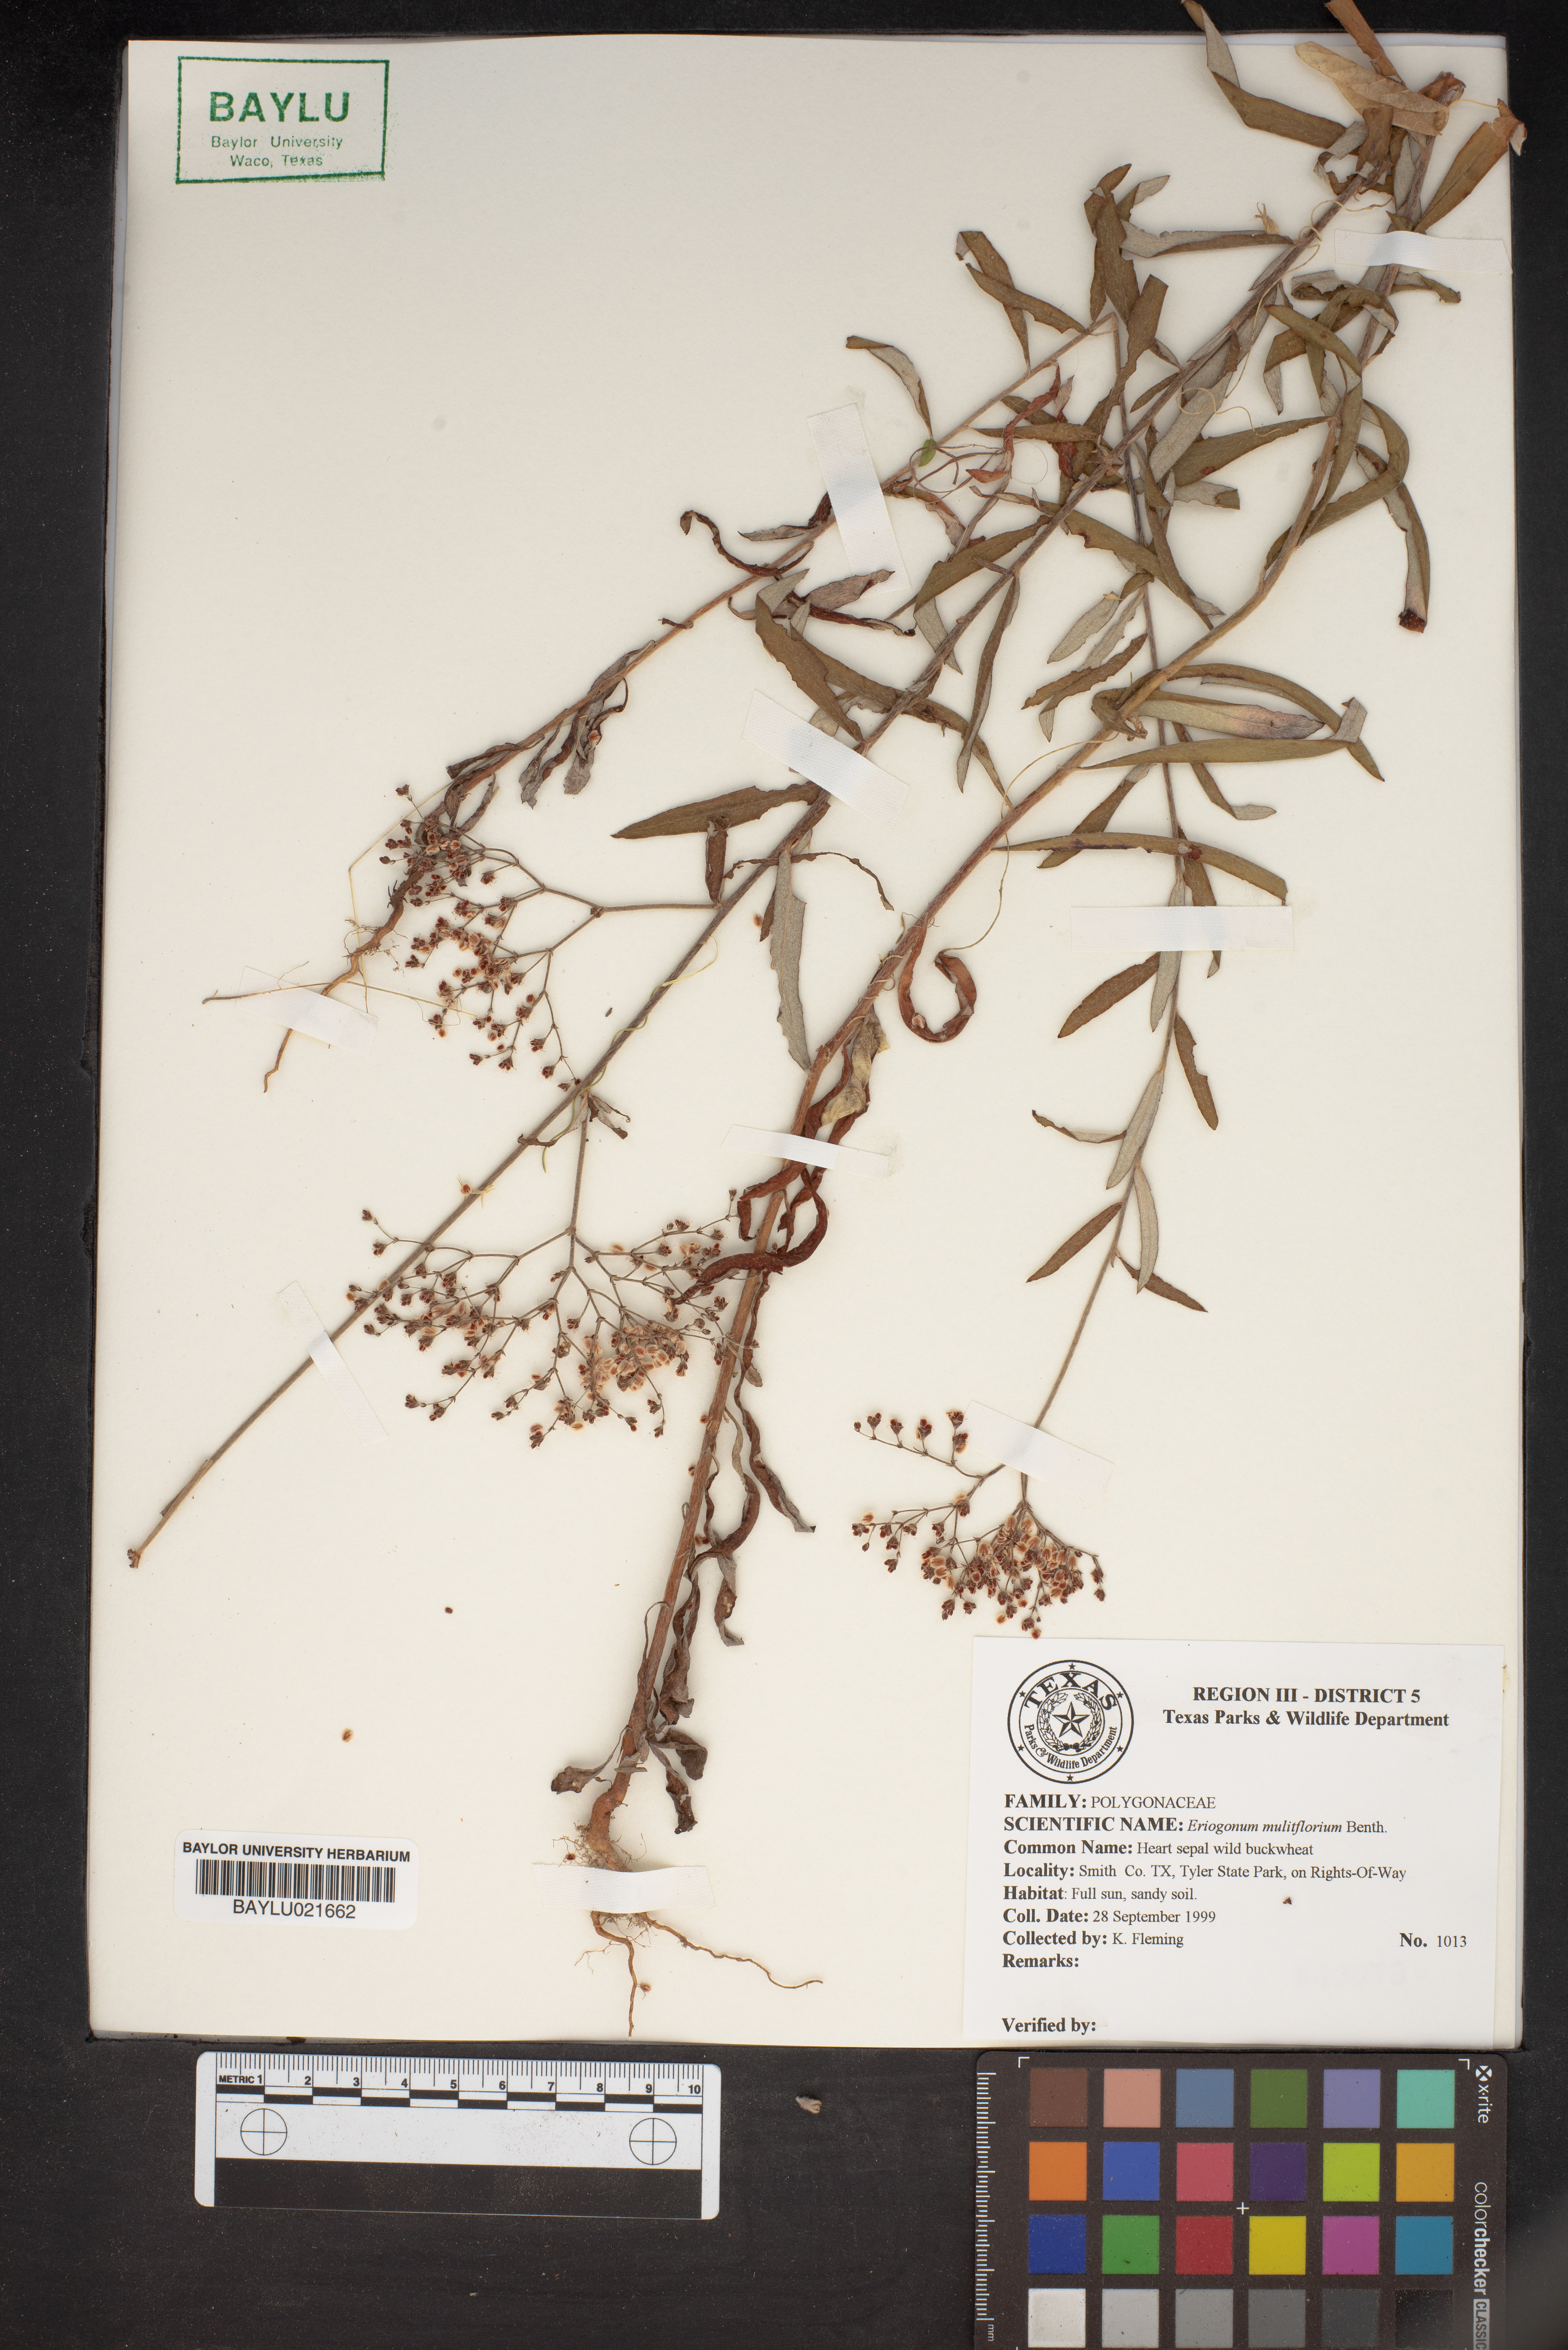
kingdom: Plantae
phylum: Tracheophyta
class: Magnoliopsida
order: Caryophyllales
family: Polygonaceae
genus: Eriogonum
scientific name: Eriogonum multiflorum
